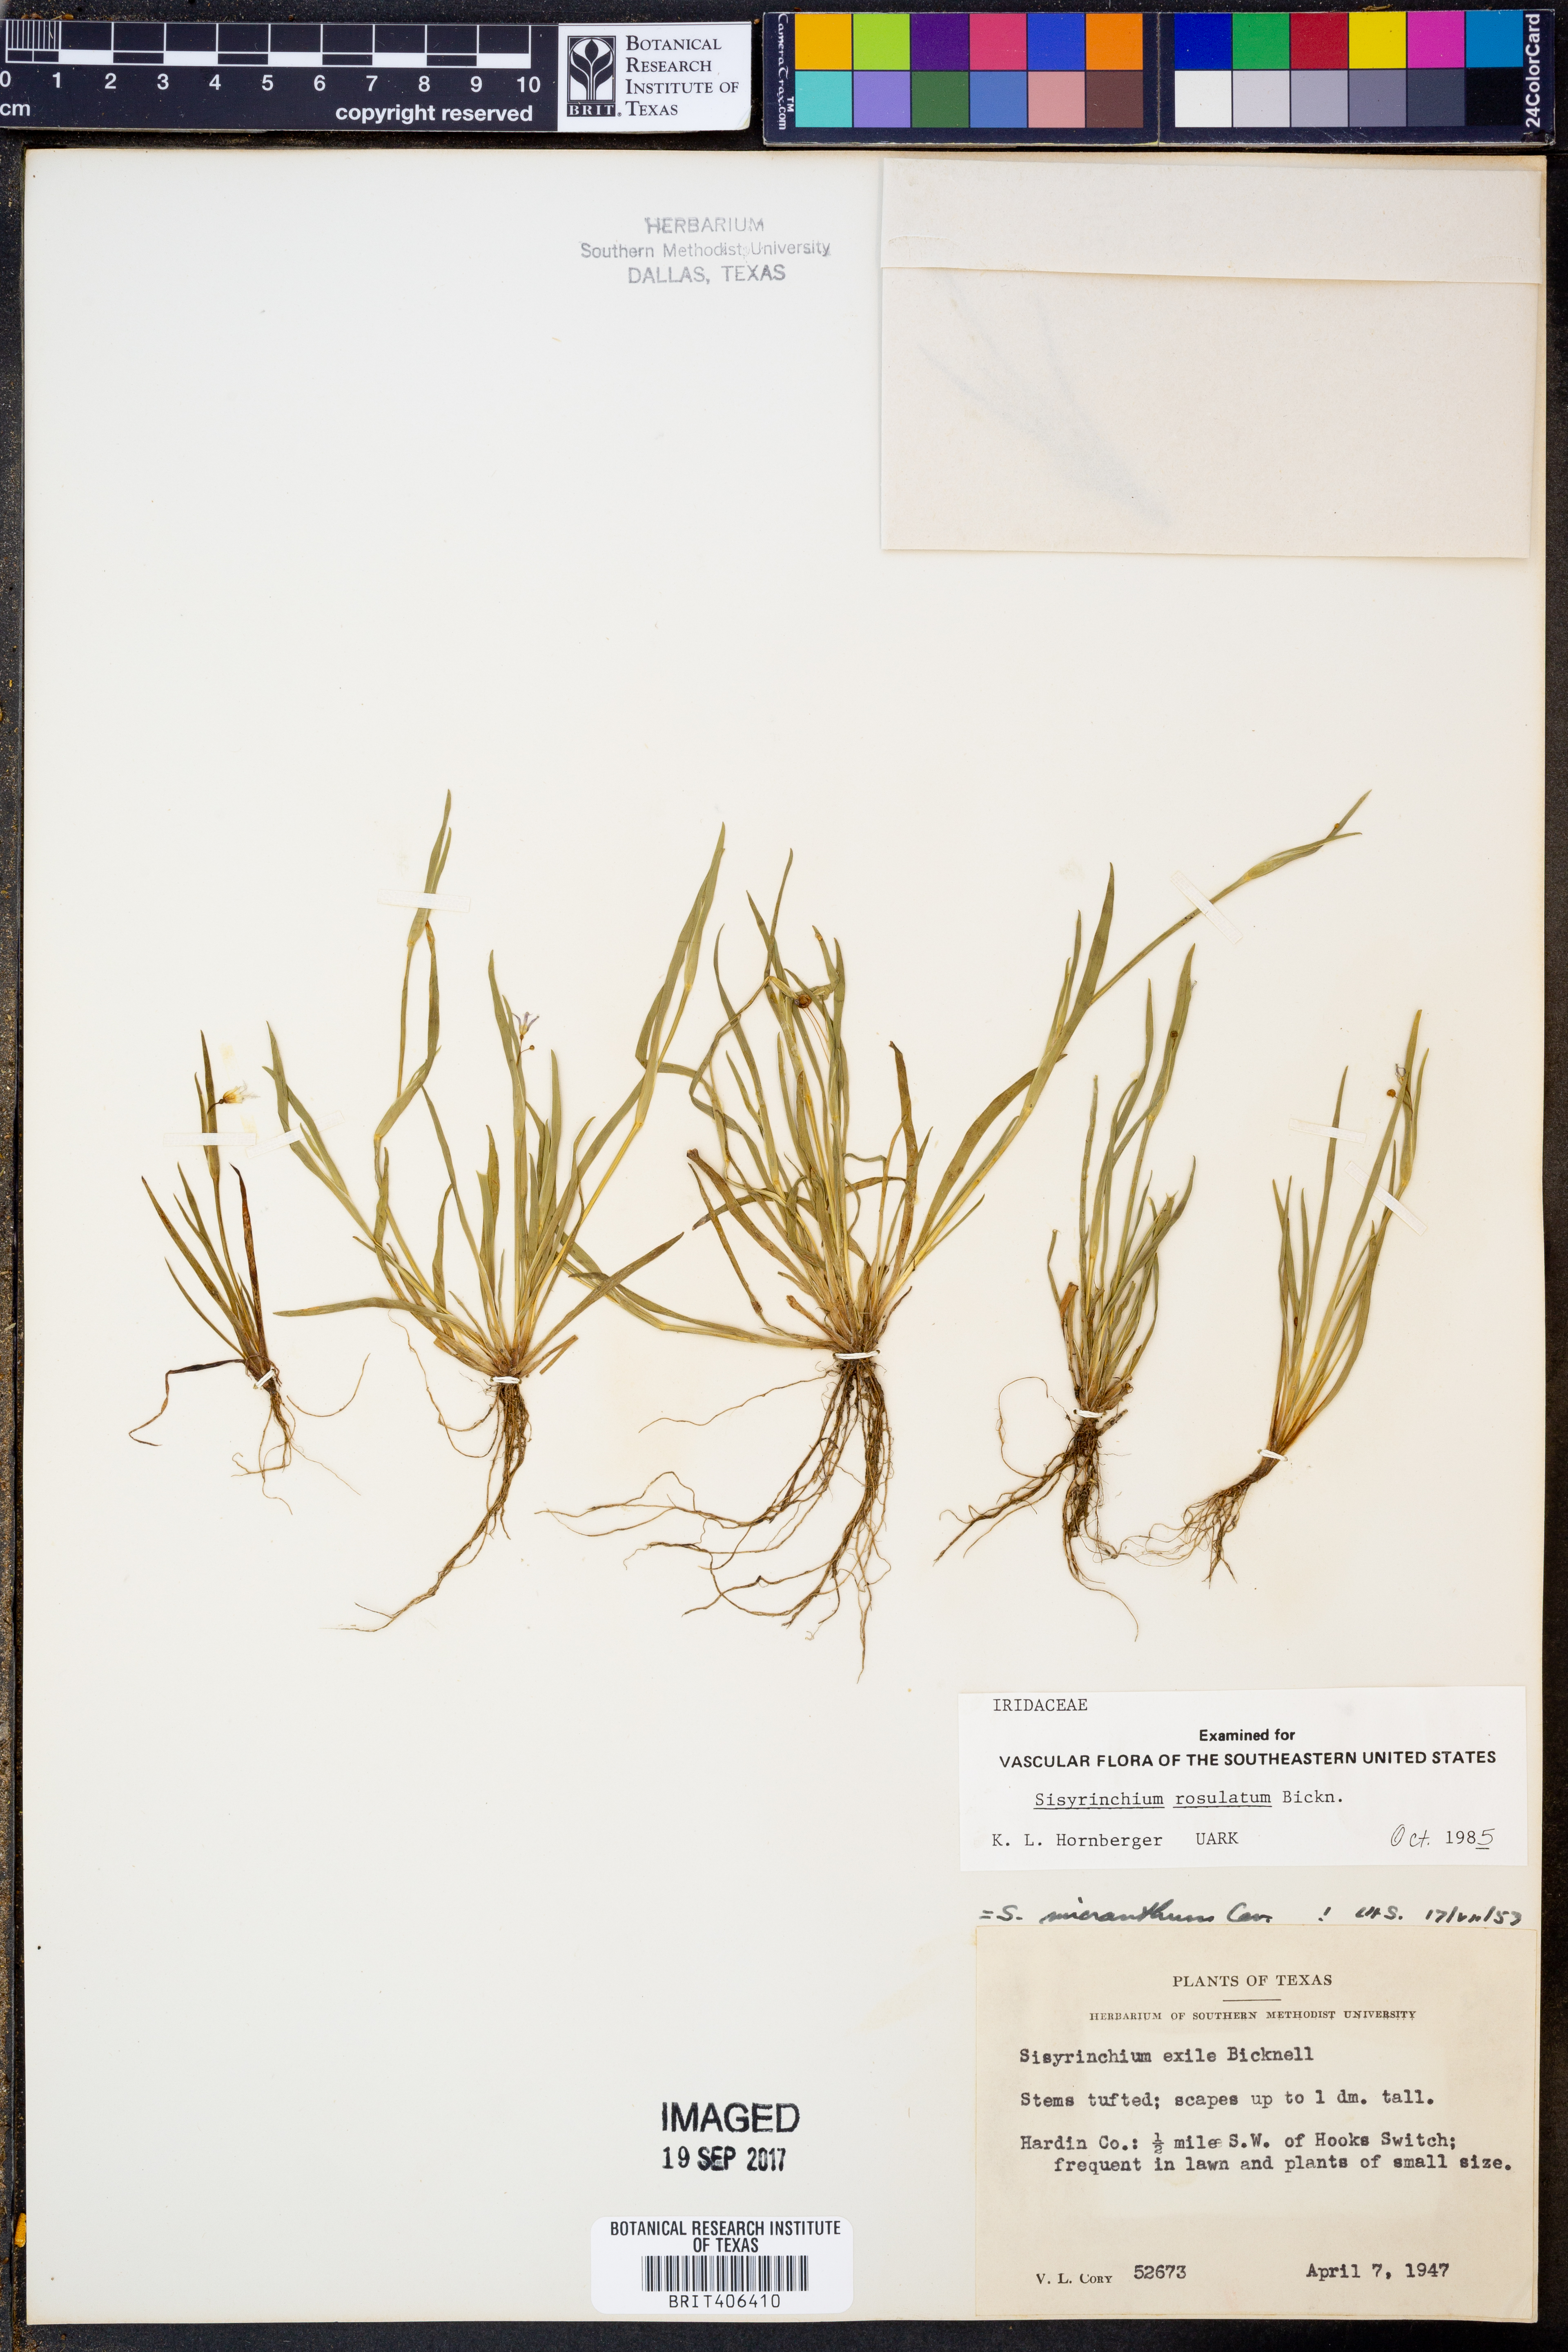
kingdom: Plantae
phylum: Tracheophyta
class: Liliopsida
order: Asparagales
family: Iridaceae
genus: Sisyrinchium
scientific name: Sisyrinchium rosulatum
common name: Annual blue-eyed grass
